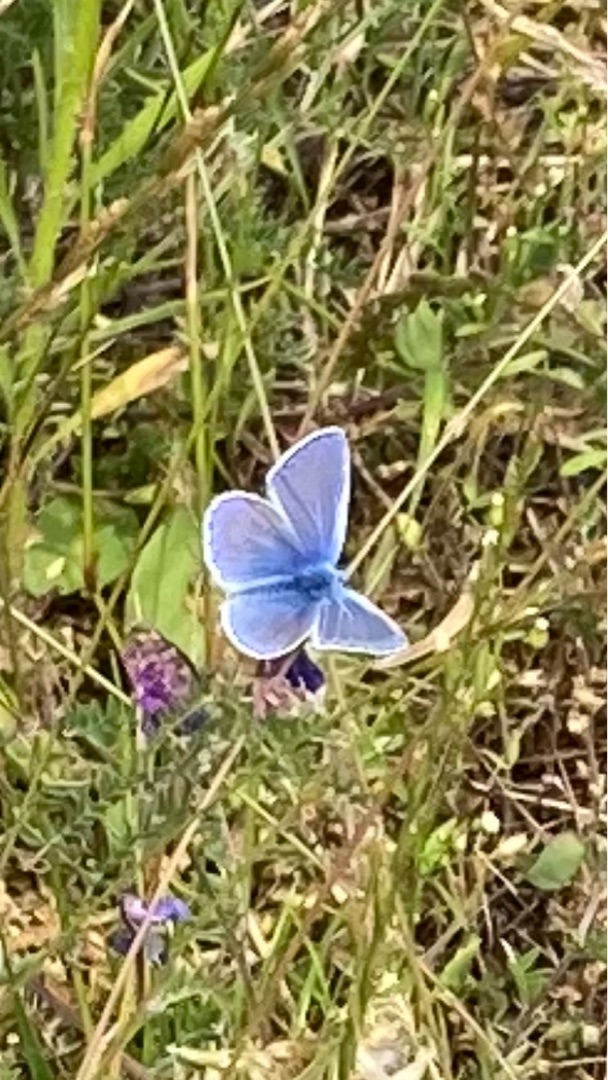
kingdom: Animalia
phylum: Arthropoda
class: Insecta
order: Lepidoptera
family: Lycaenidae
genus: Polyommatus
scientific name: Polyommatus icarus
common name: Almindelig blåfugl
